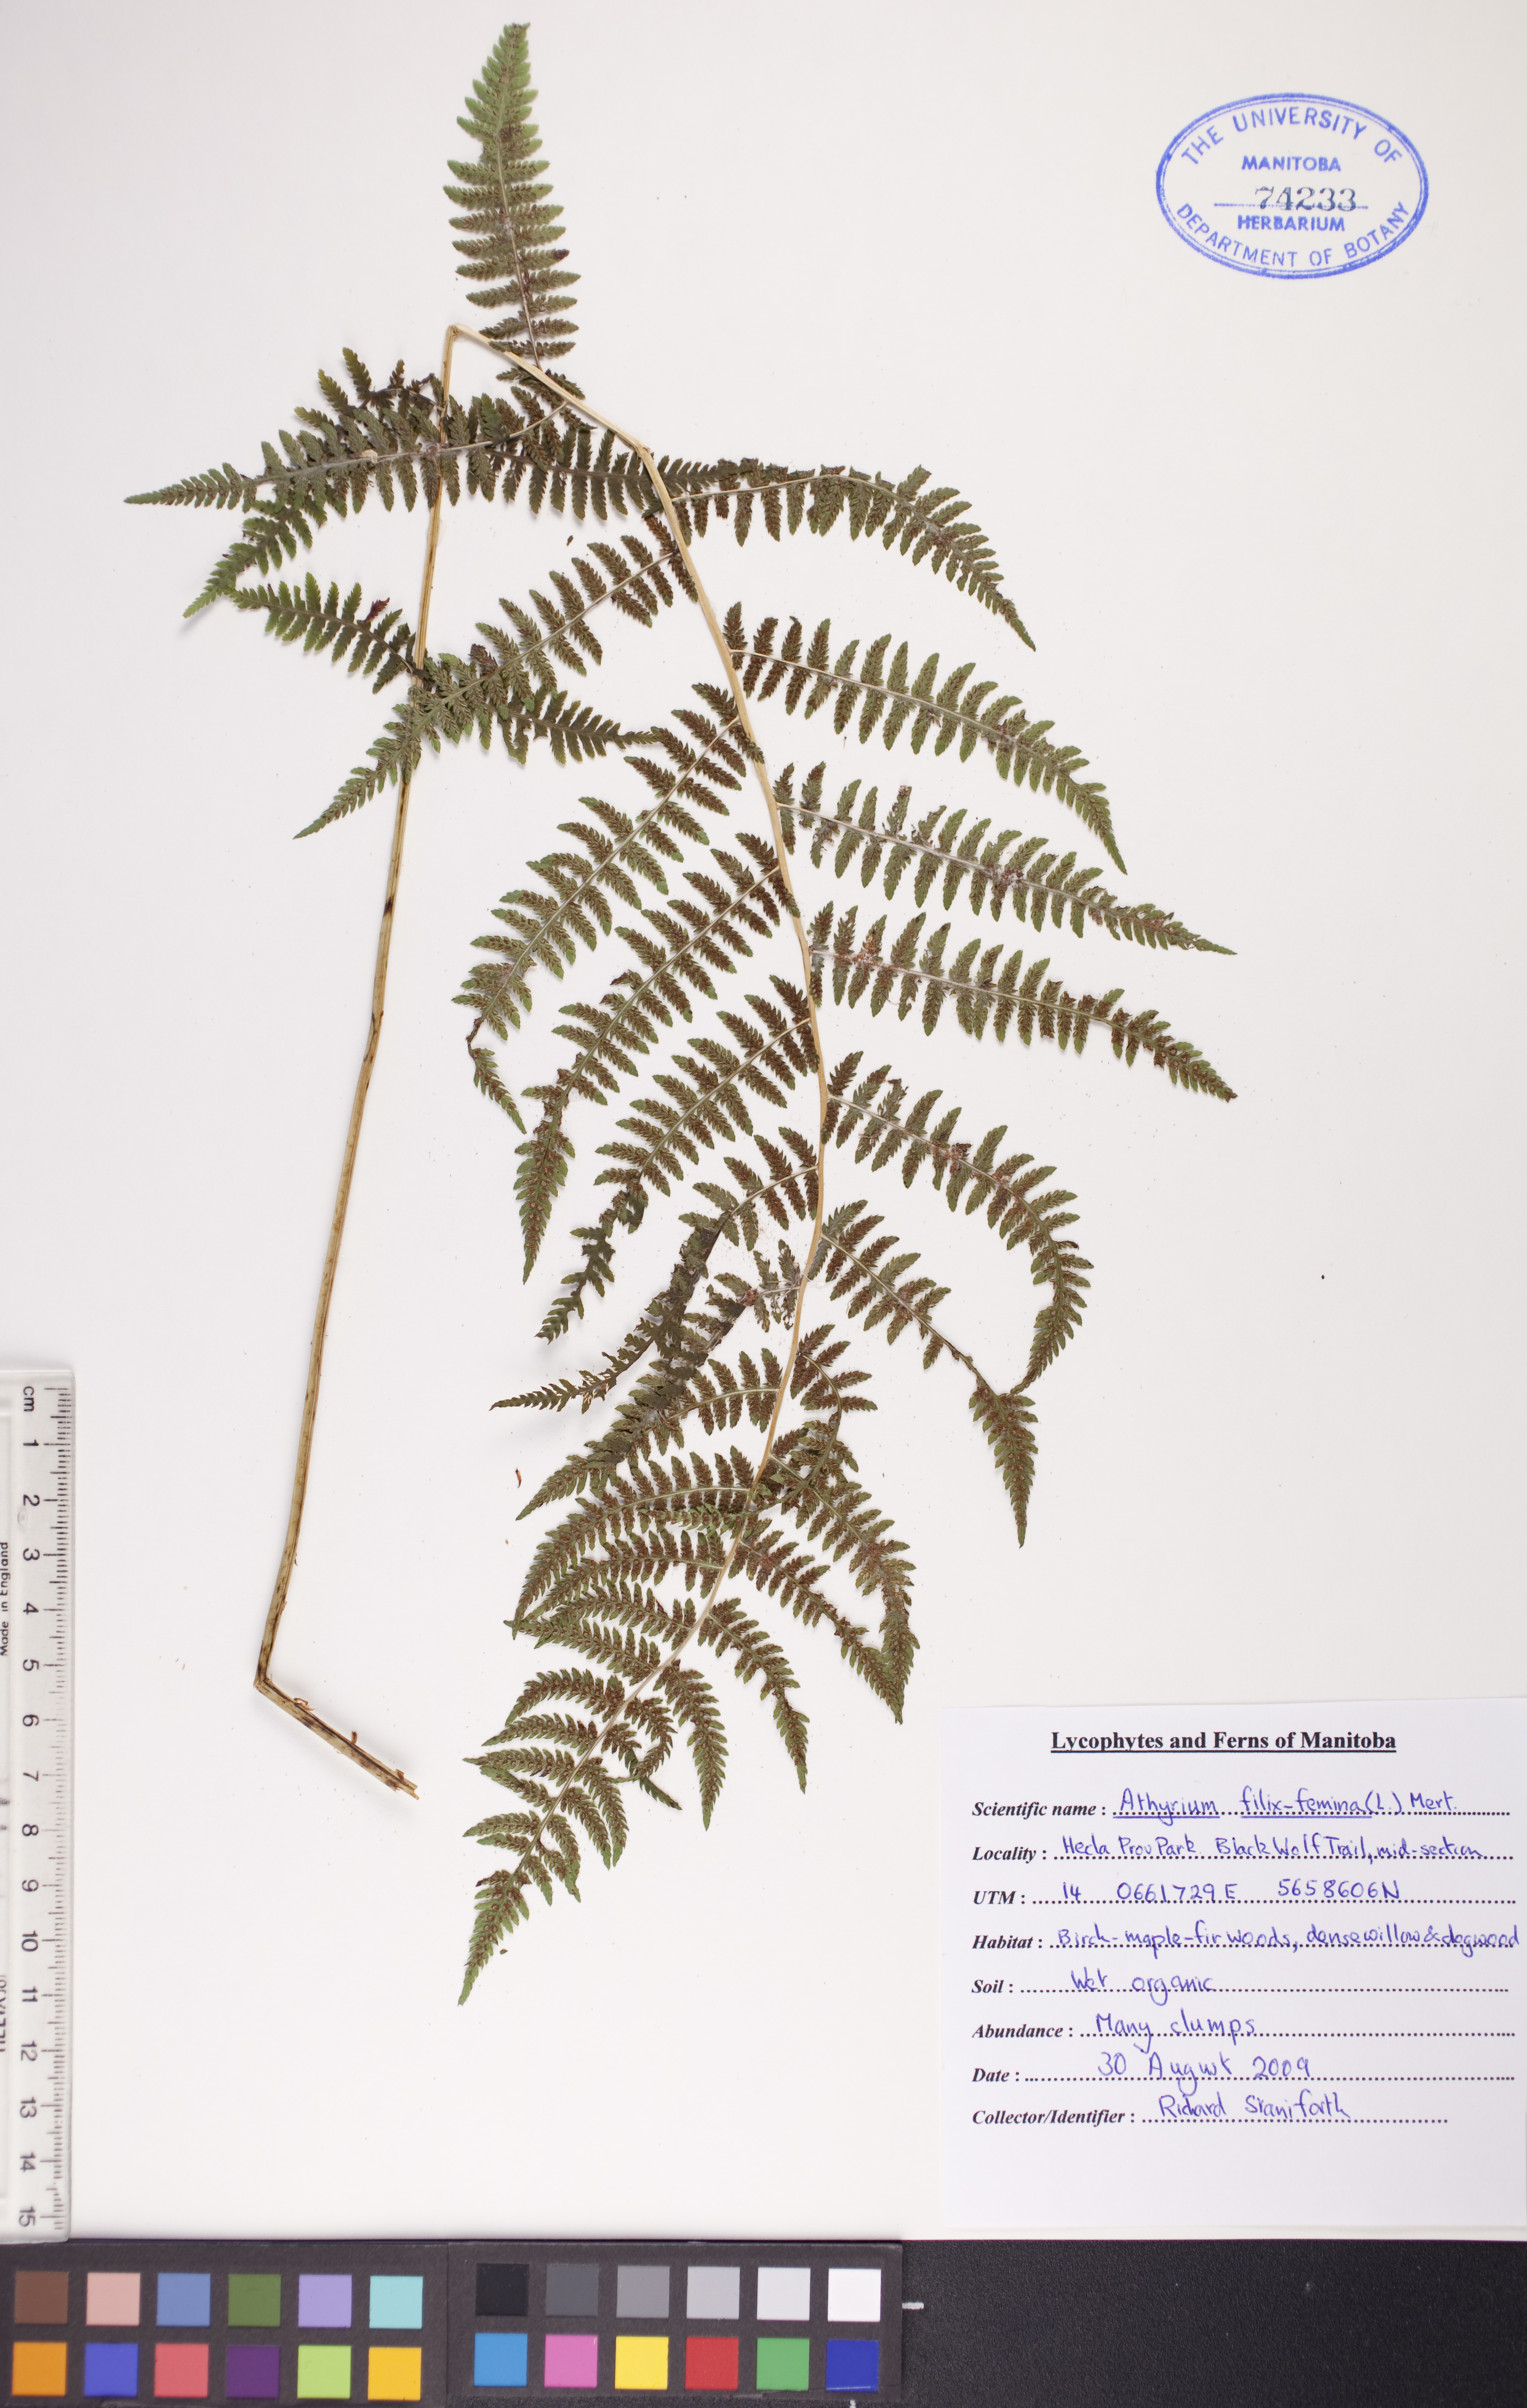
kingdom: Plantae
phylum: Tracheophyta
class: Polypodiopsida
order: Polypodiales
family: Athyriaceae
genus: Athyrium
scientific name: Athyrium filix-femina
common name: Lady fern
